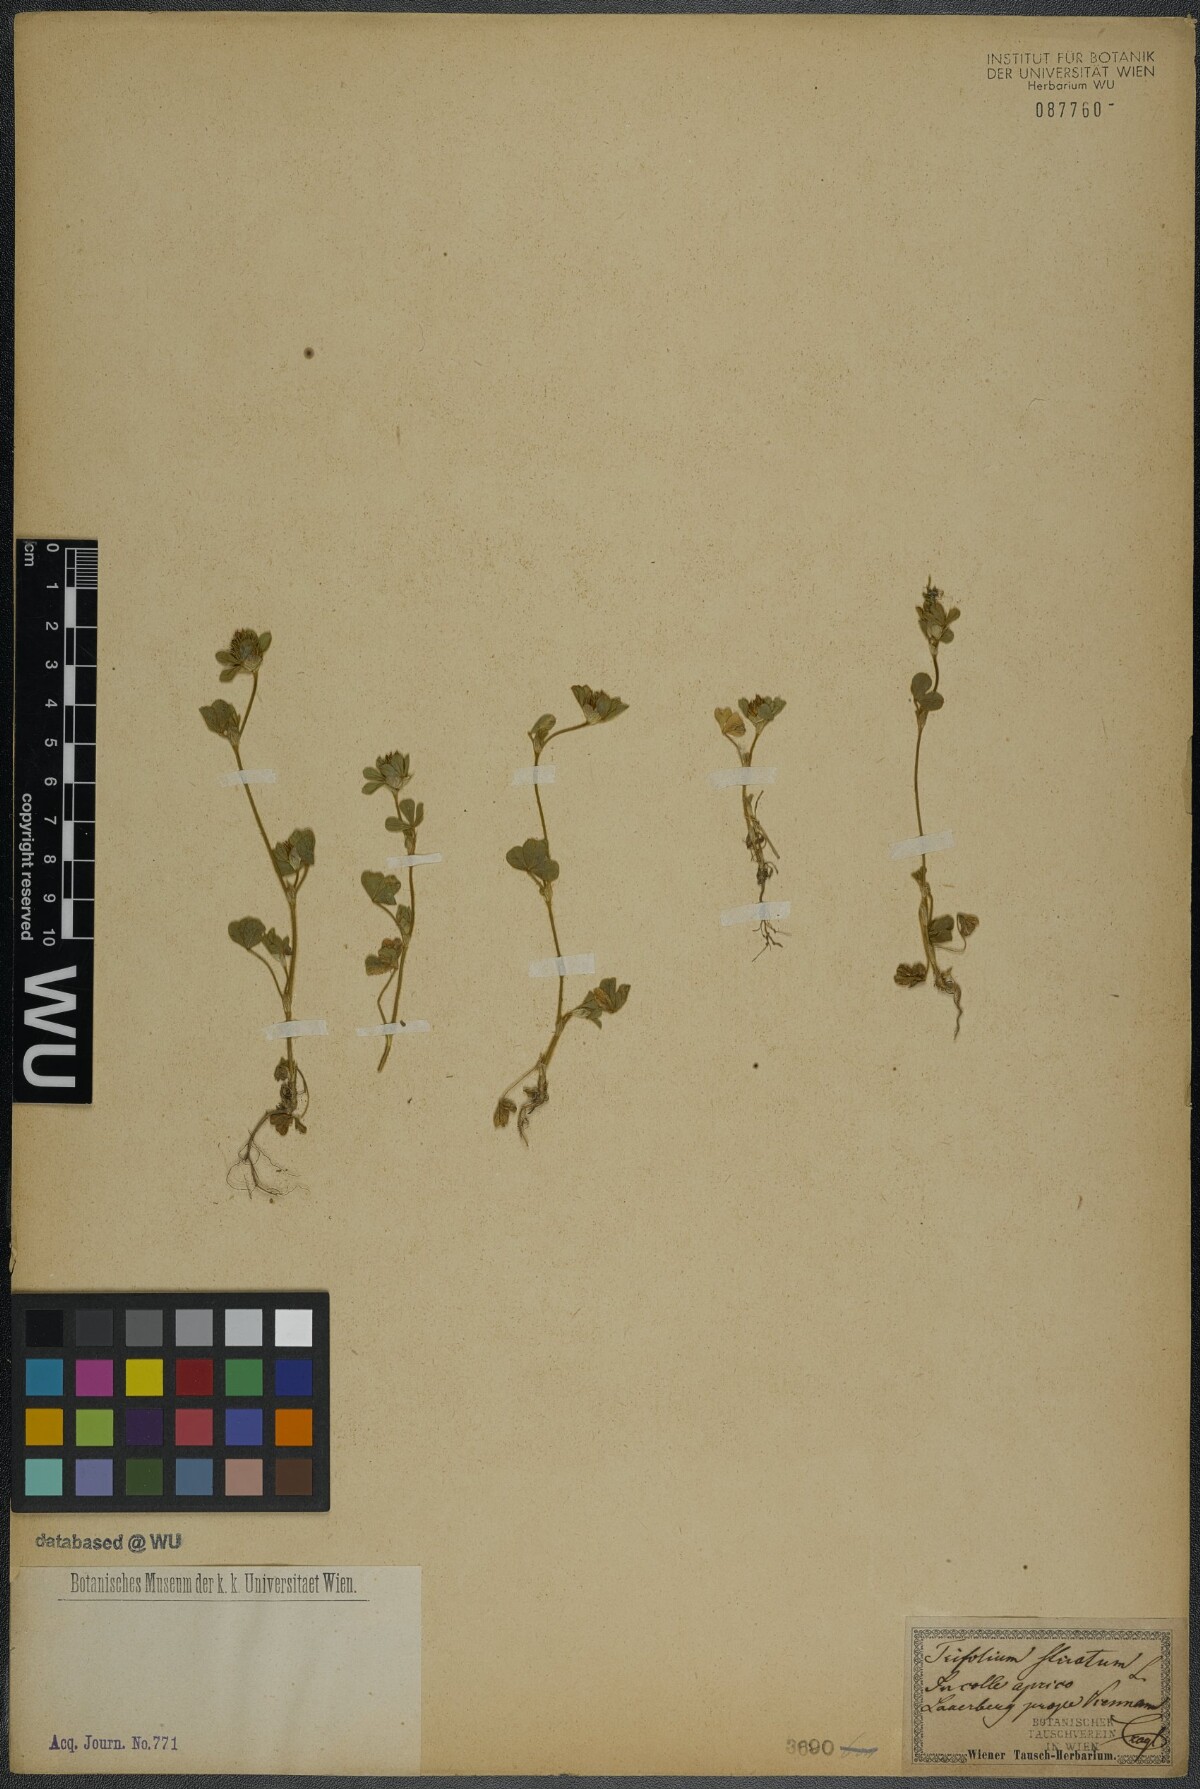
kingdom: Plantae
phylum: Tracheophyta
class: Magnoliopsida
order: Fabales
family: Fabaceae
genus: Trifolium
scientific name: Trifolium striatum
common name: Knotted clover
